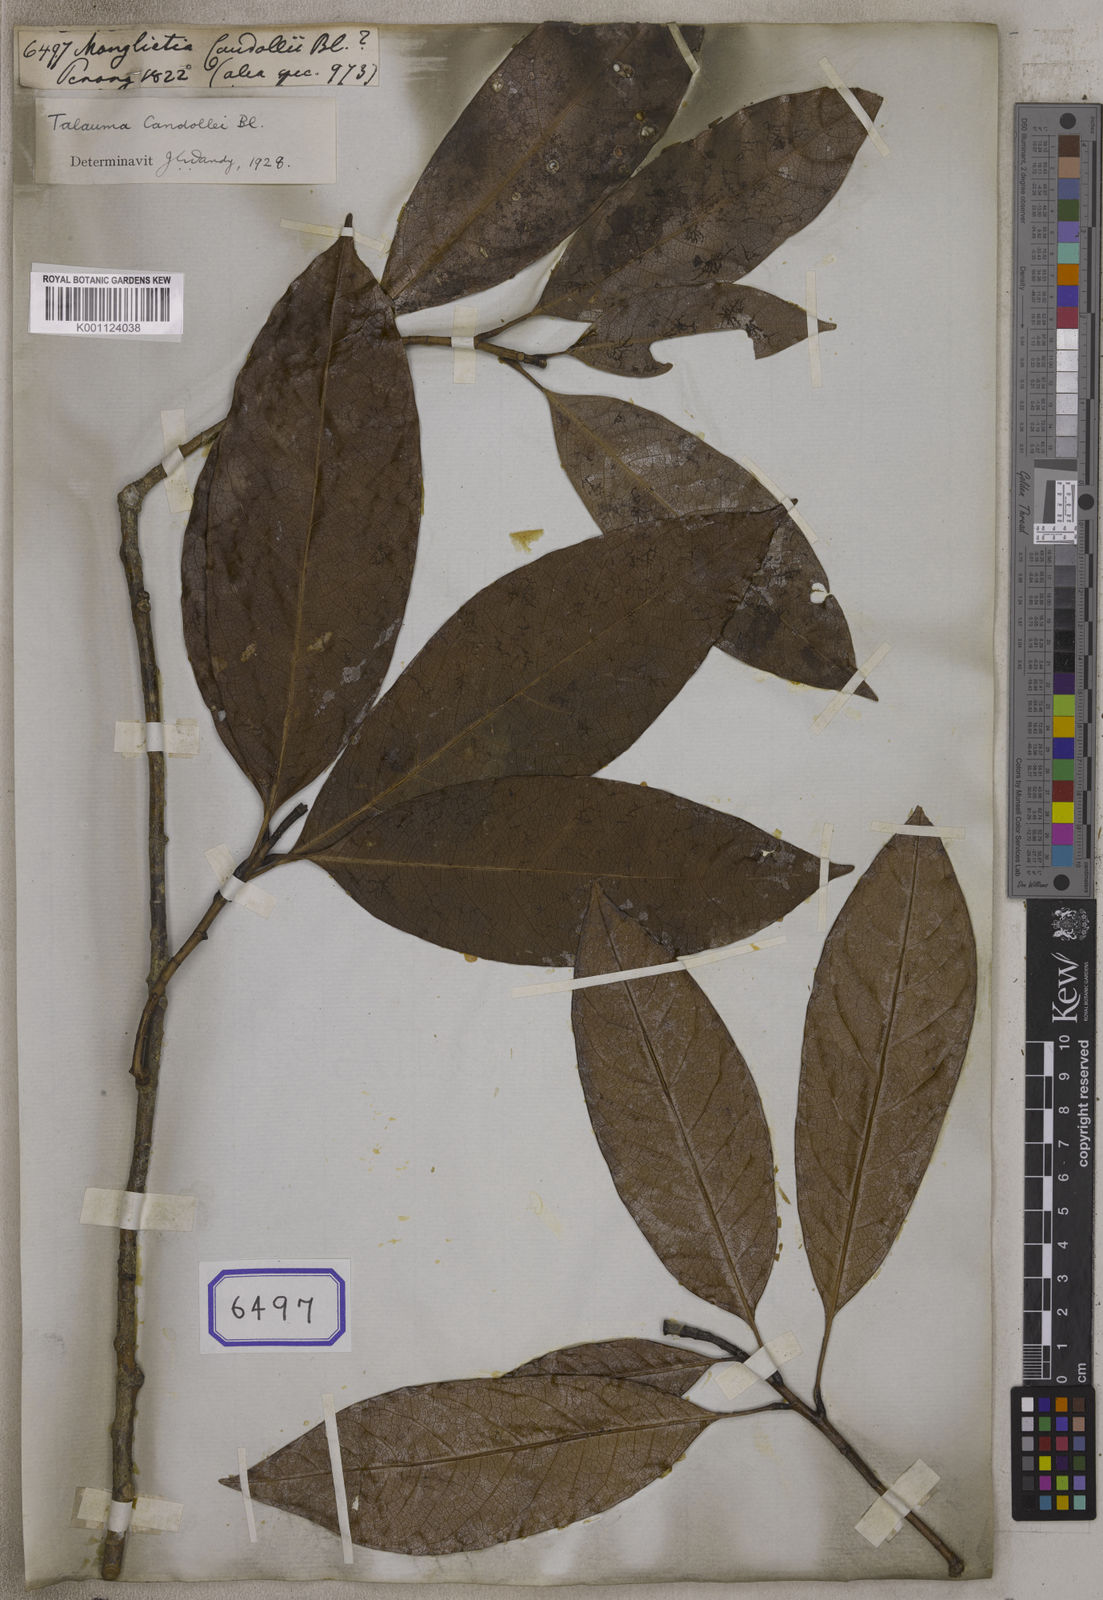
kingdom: Plantae
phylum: Tracheophyta
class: Magnoliopsida
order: Magnoliales
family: Magnoliaceae
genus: Magnolia
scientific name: Magnolia
